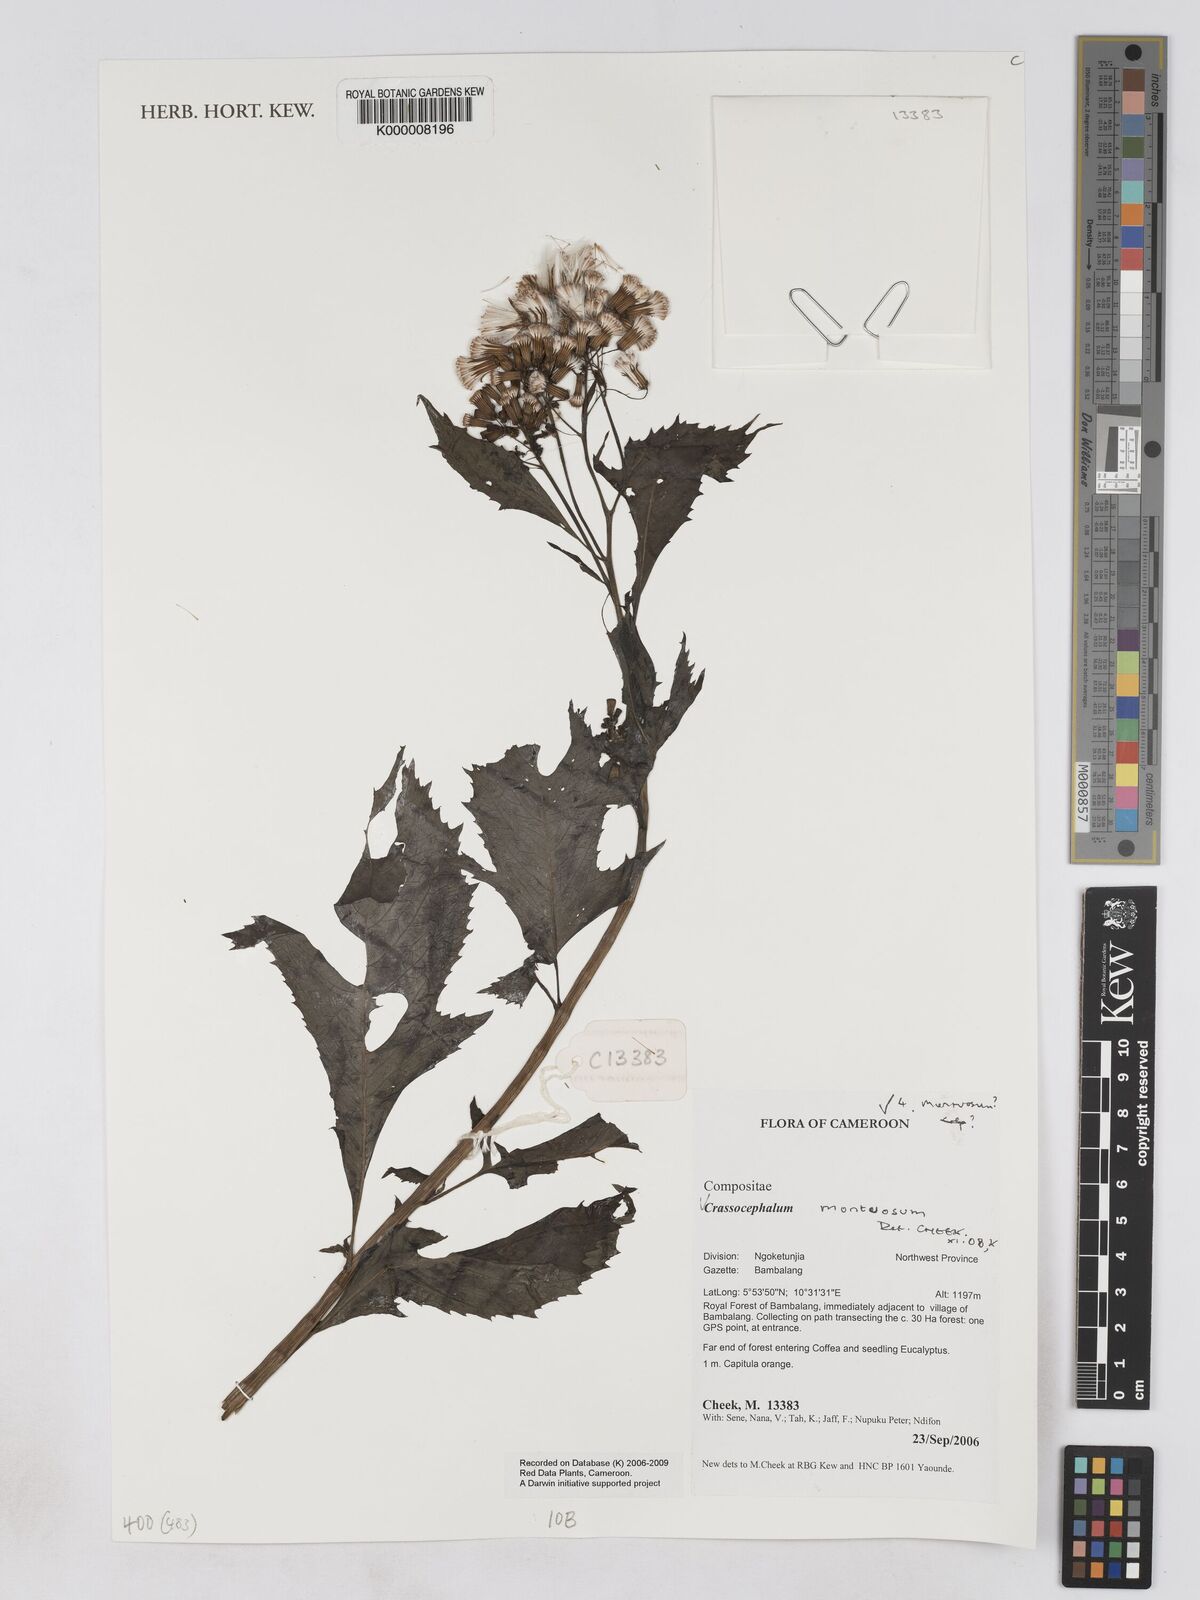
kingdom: Plantae
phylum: Tracheophyta
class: Magnoliopsida
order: Asterales
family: Asteraceae
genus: Crassocephalum
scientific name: Crassocephalum montuosum
